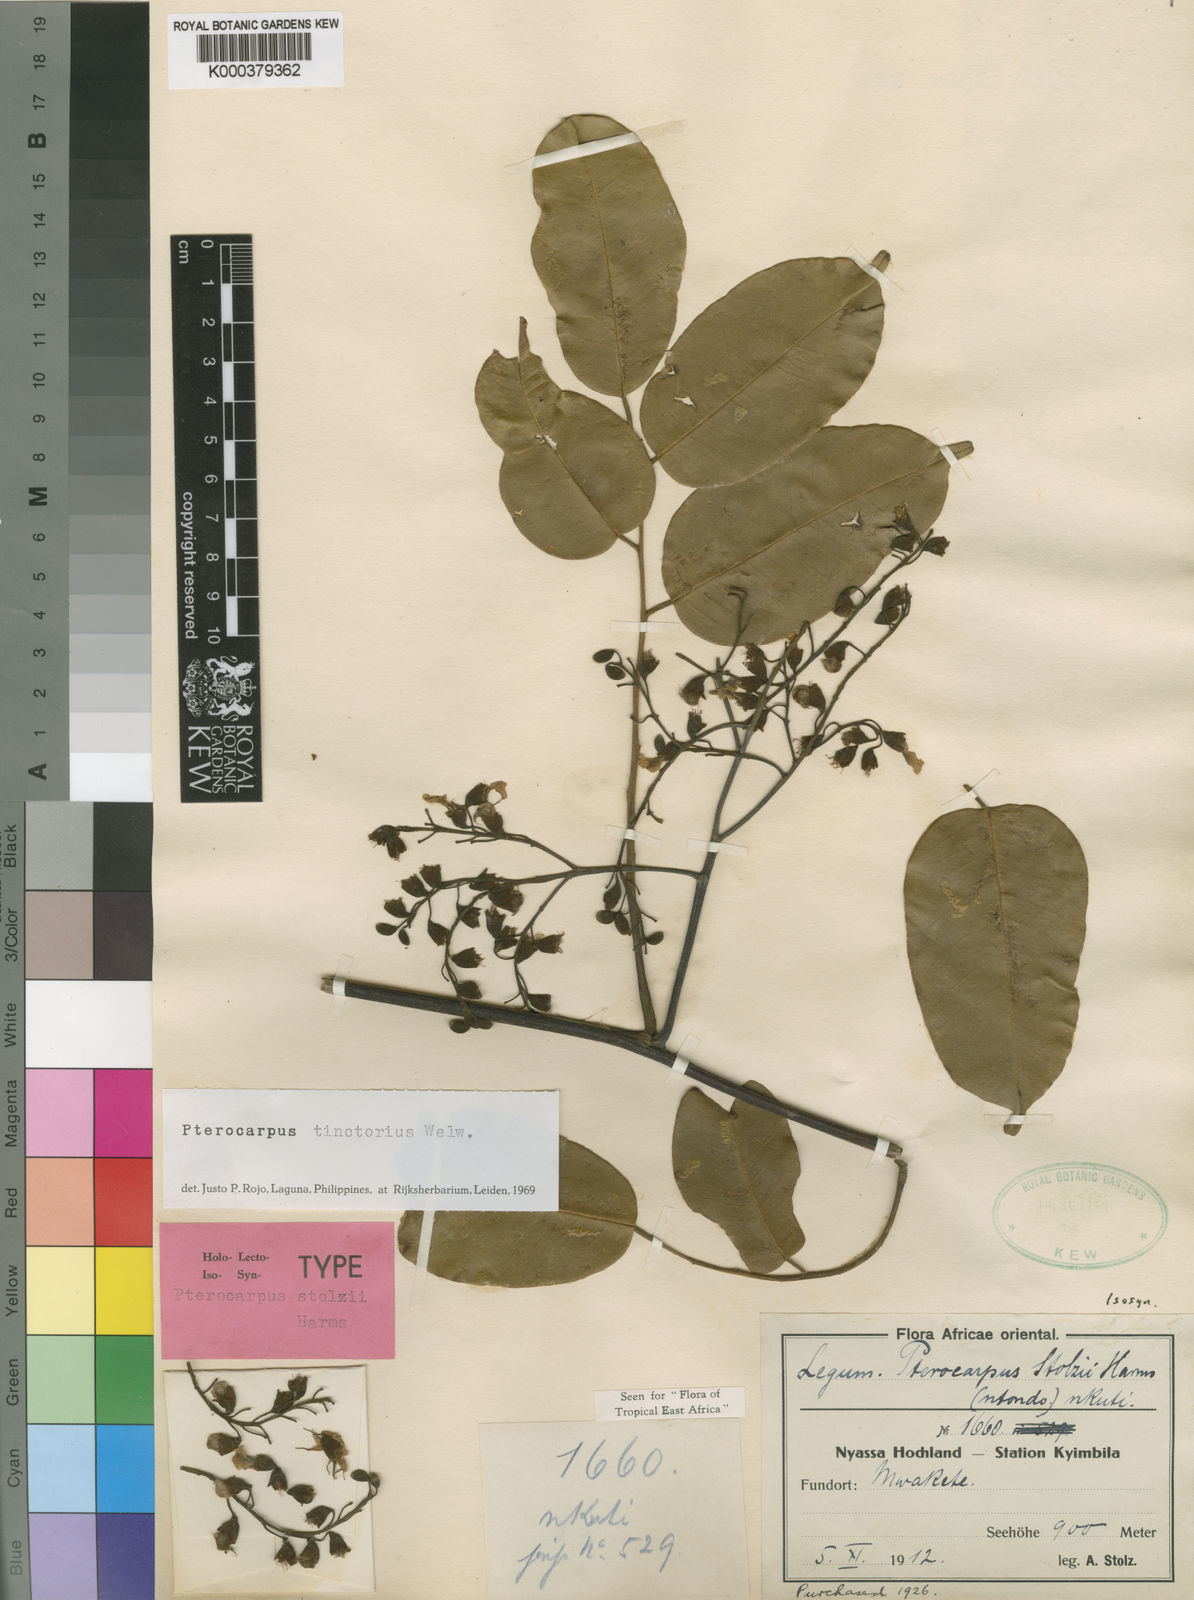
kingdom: Plantae
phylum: Tracheophyta
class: Magnoliopsida
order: Fabales
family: Fabaceae
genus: Pterocarpus
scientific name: Pterocarpus tinctorius
